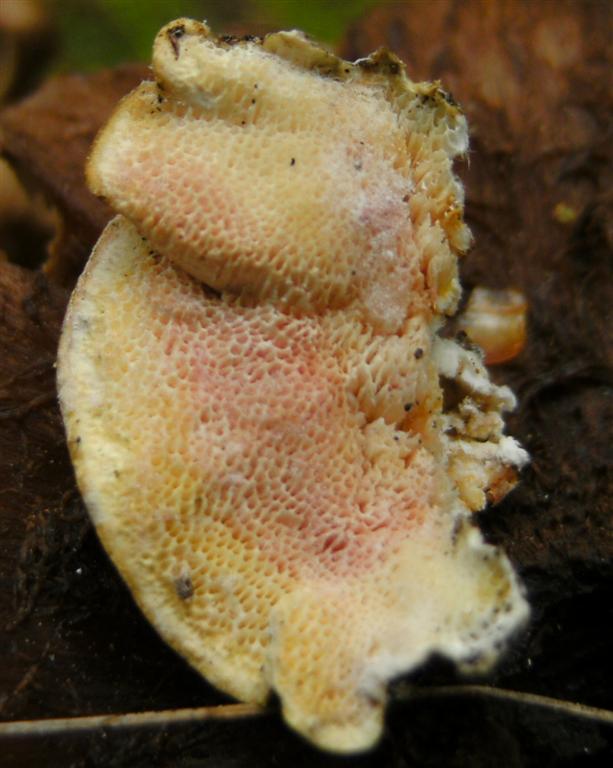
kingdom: Fungi
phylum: Ascomycota
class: Sordariomycetes
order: Hypocreales
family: Hypocreaceae
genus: Hypomyces
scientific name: Hypomyces rosellus
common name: rosa snylteskorpe
